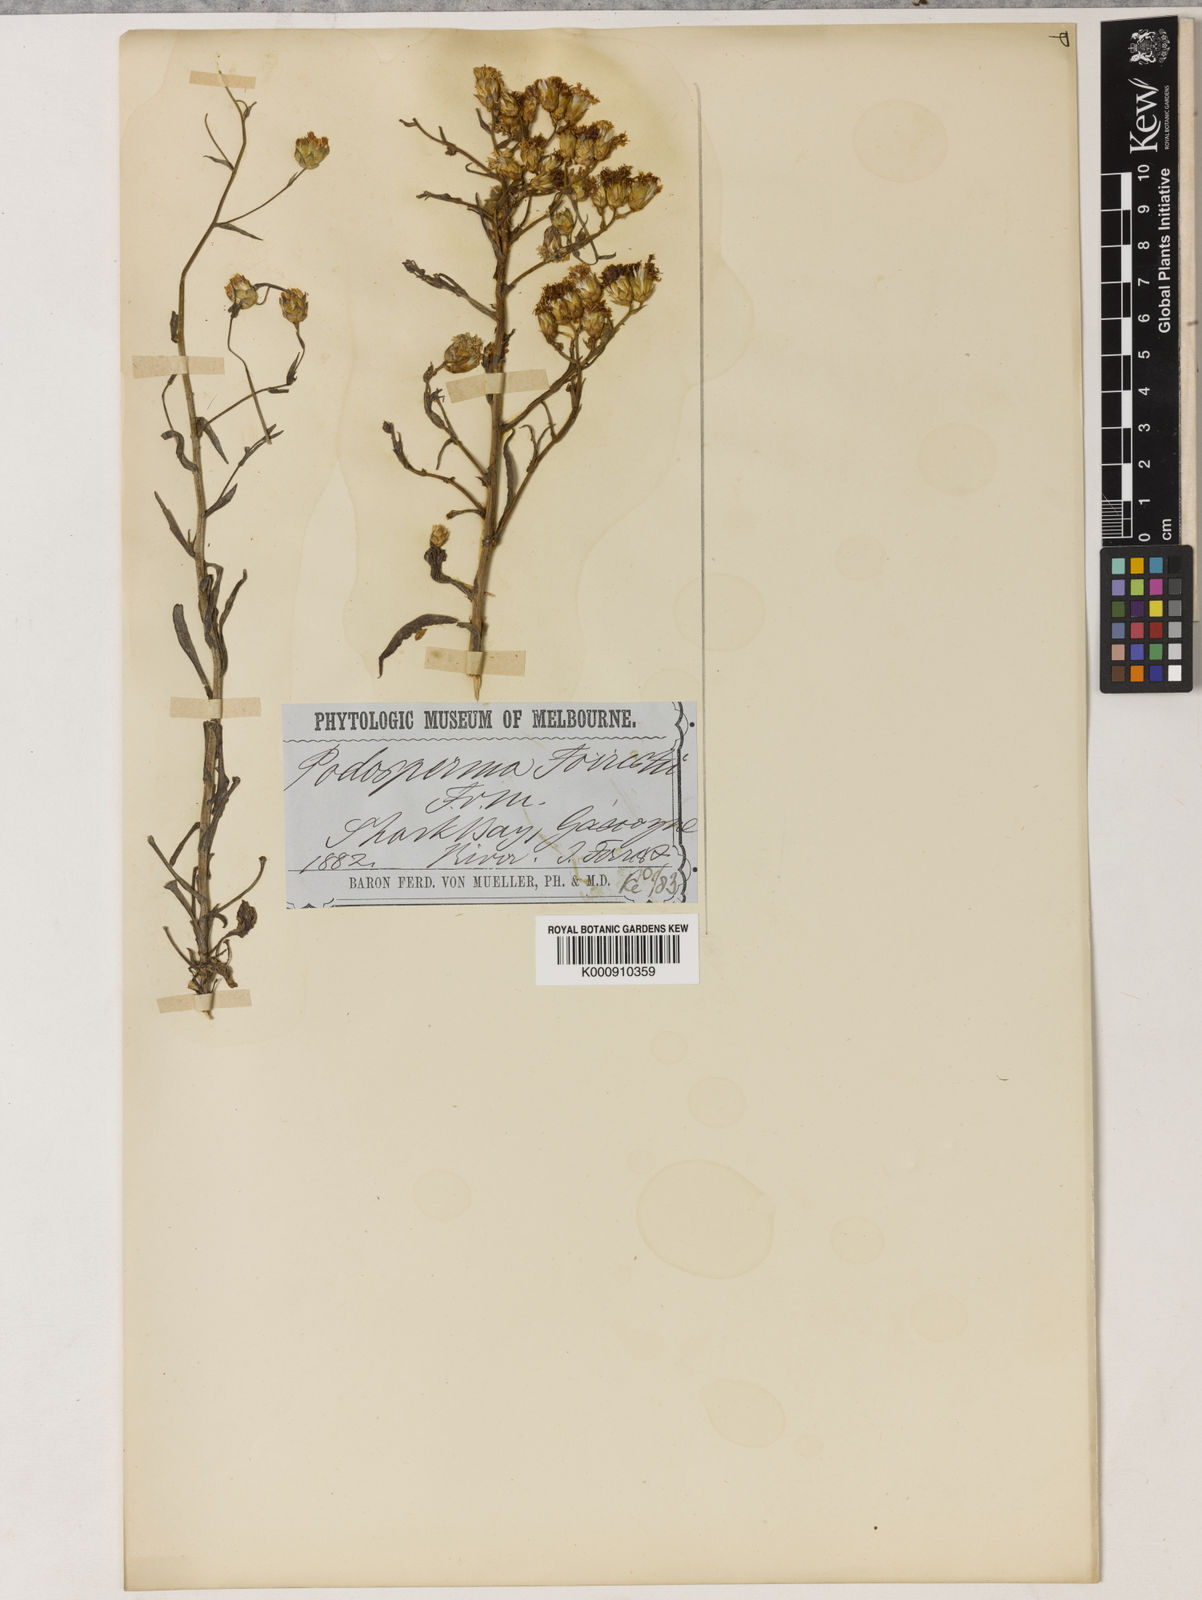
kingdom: Plantae
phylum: Tracheophyta
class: Magnoliopsida
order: Asterales
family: Asteraceae
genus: Podotheca
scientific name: Podotheca
